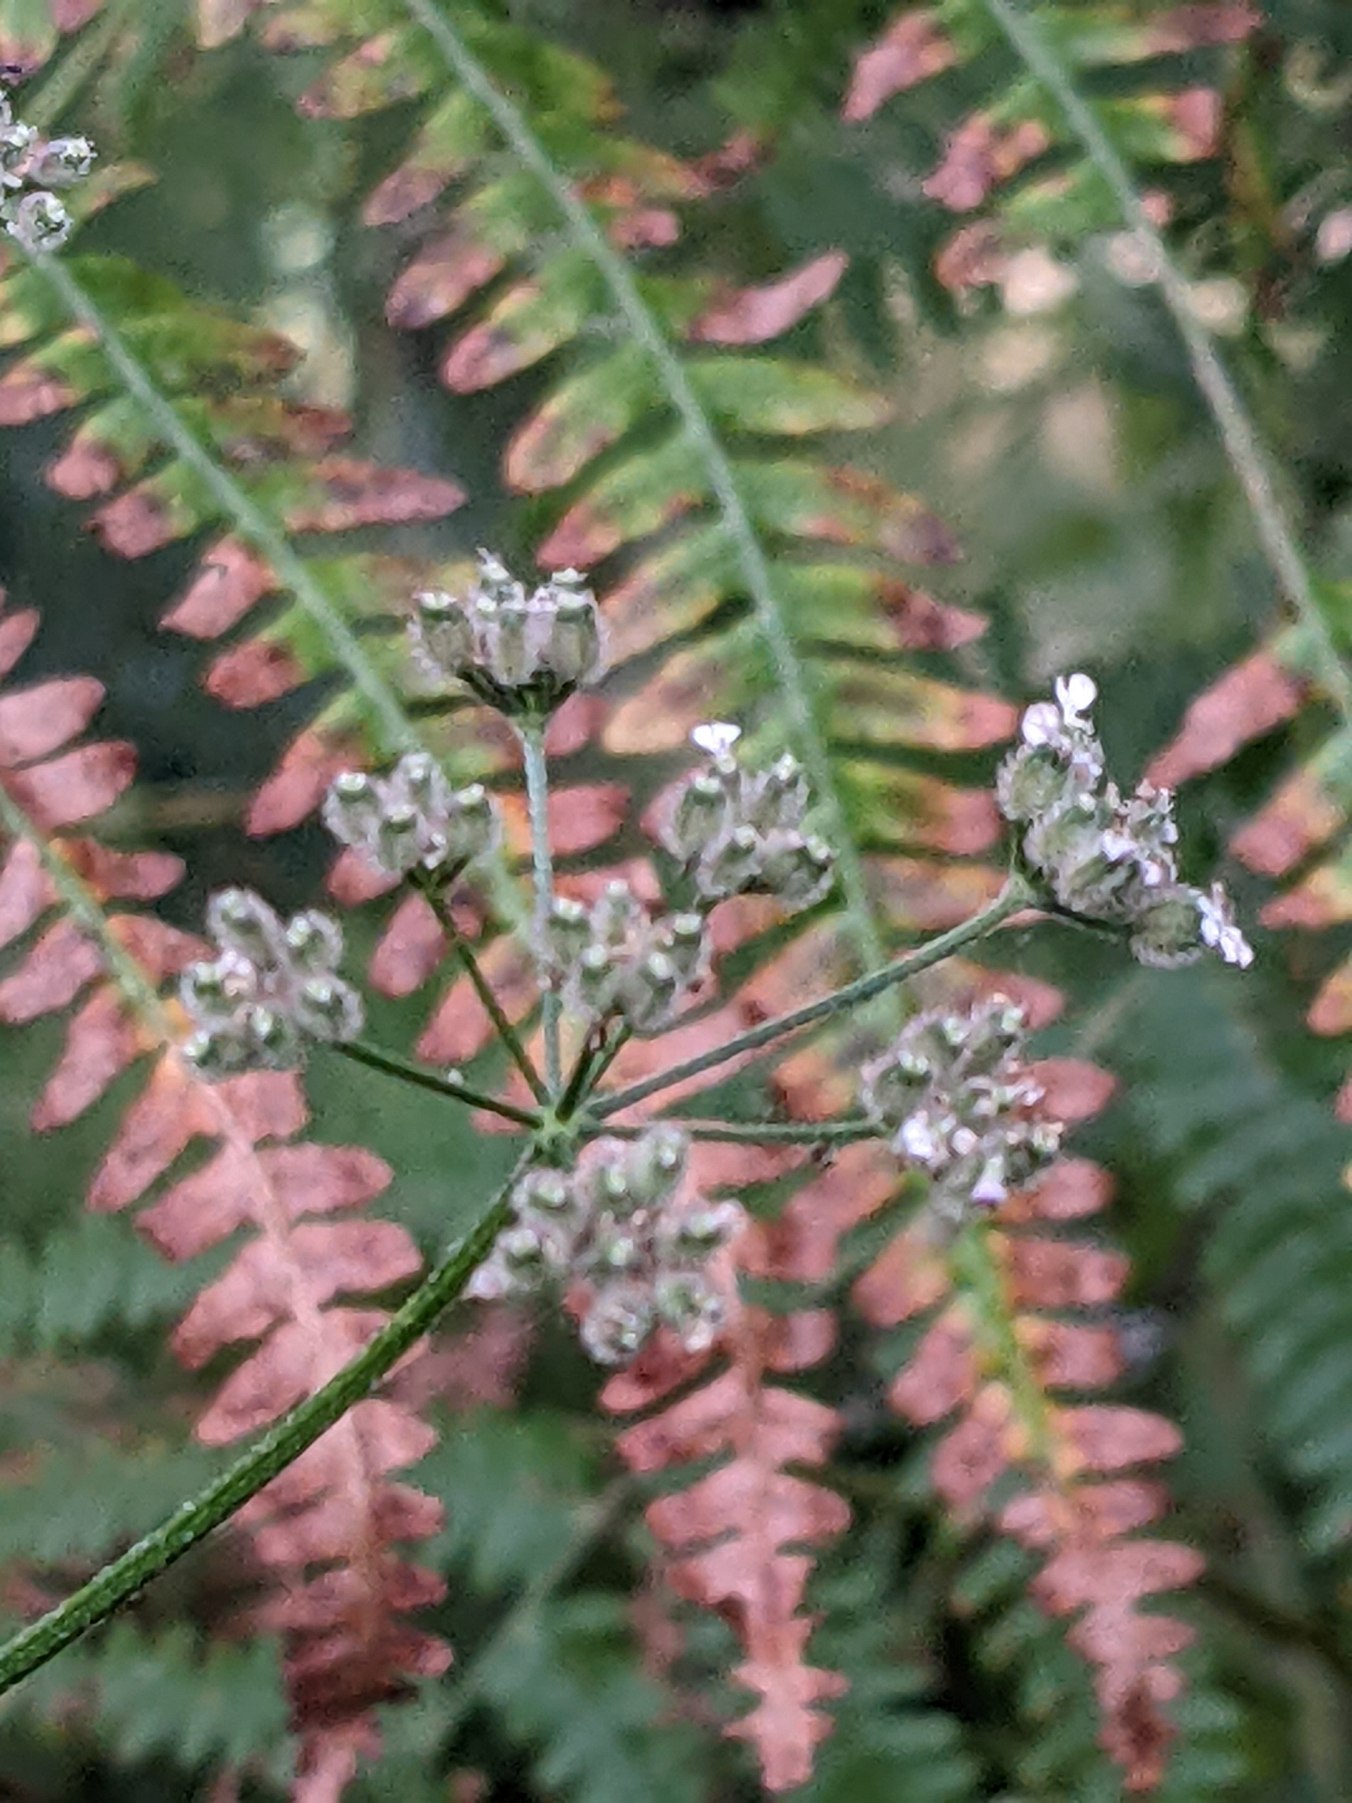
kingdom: Plantae
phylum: Tracheophyta
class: Magnoliopsida
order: Apiales
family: Apiaceae
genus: Torilis
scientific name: Torilis japonica
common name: Hvas randfrø
